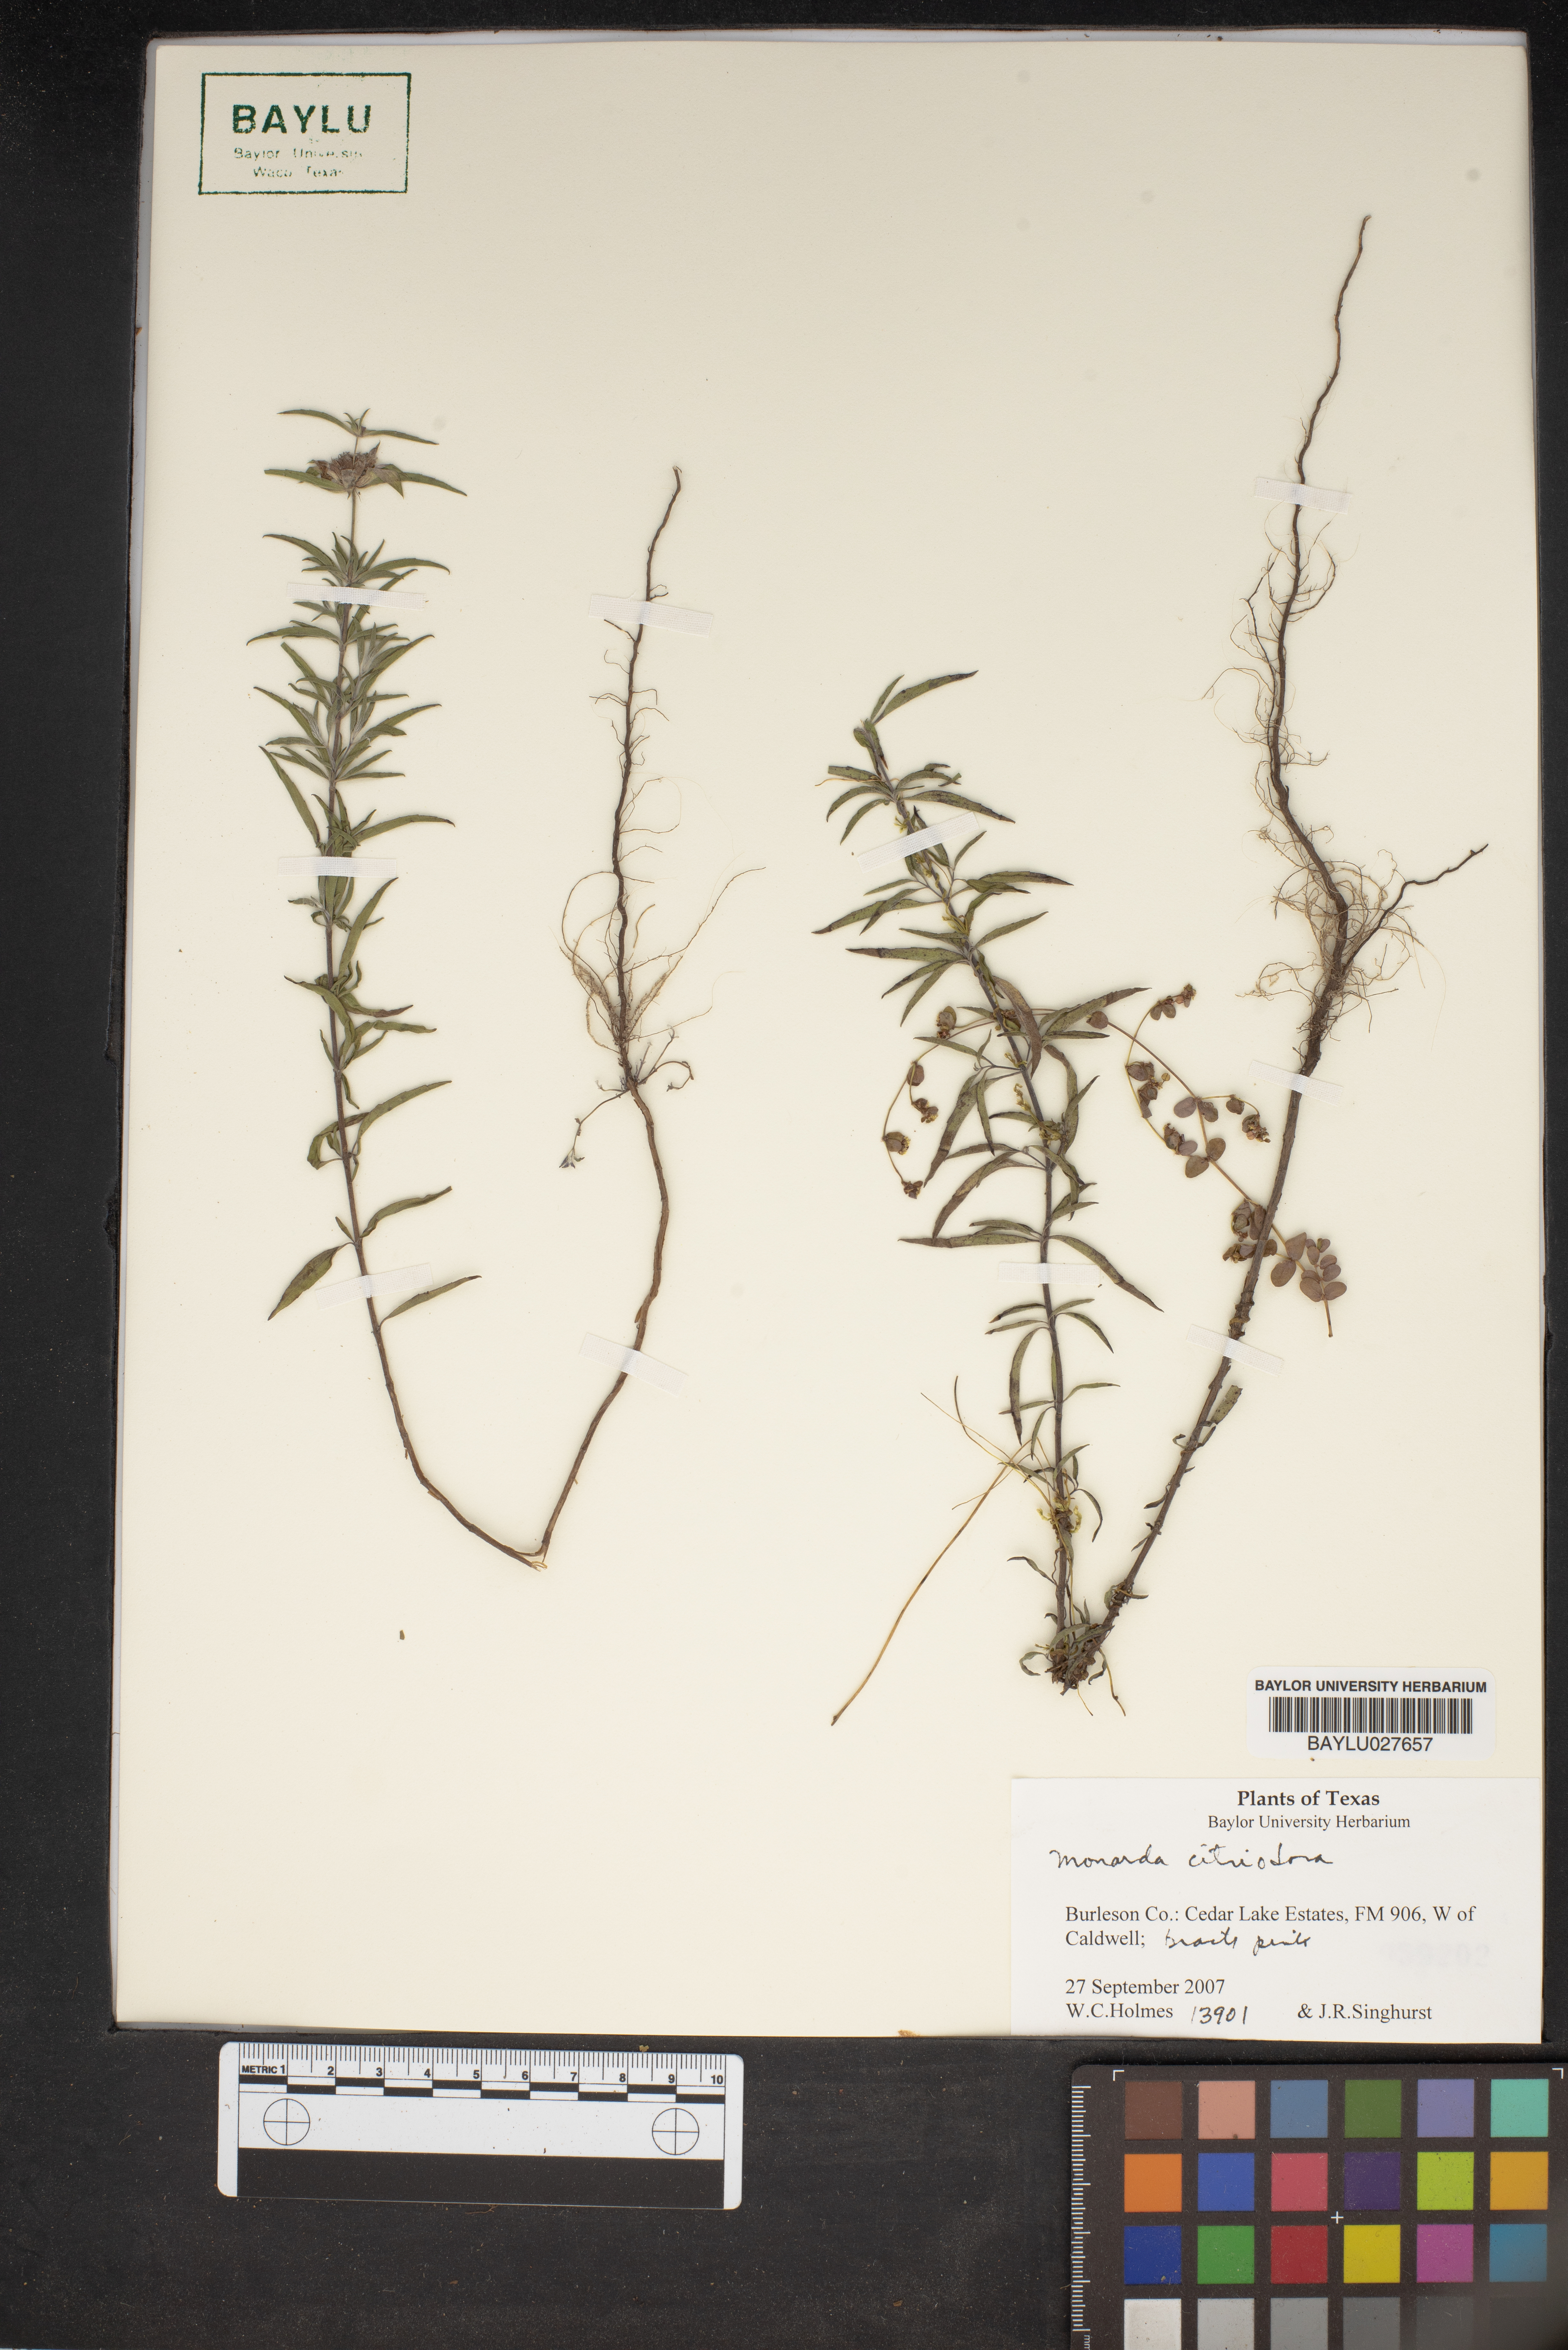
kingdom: Plantae
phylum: Tracheophyta
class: Magnoliopsida
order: Lamiales
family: Lamiaceae
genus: Monarda
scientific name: Monarda citriodora
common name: Lemon beebalm
